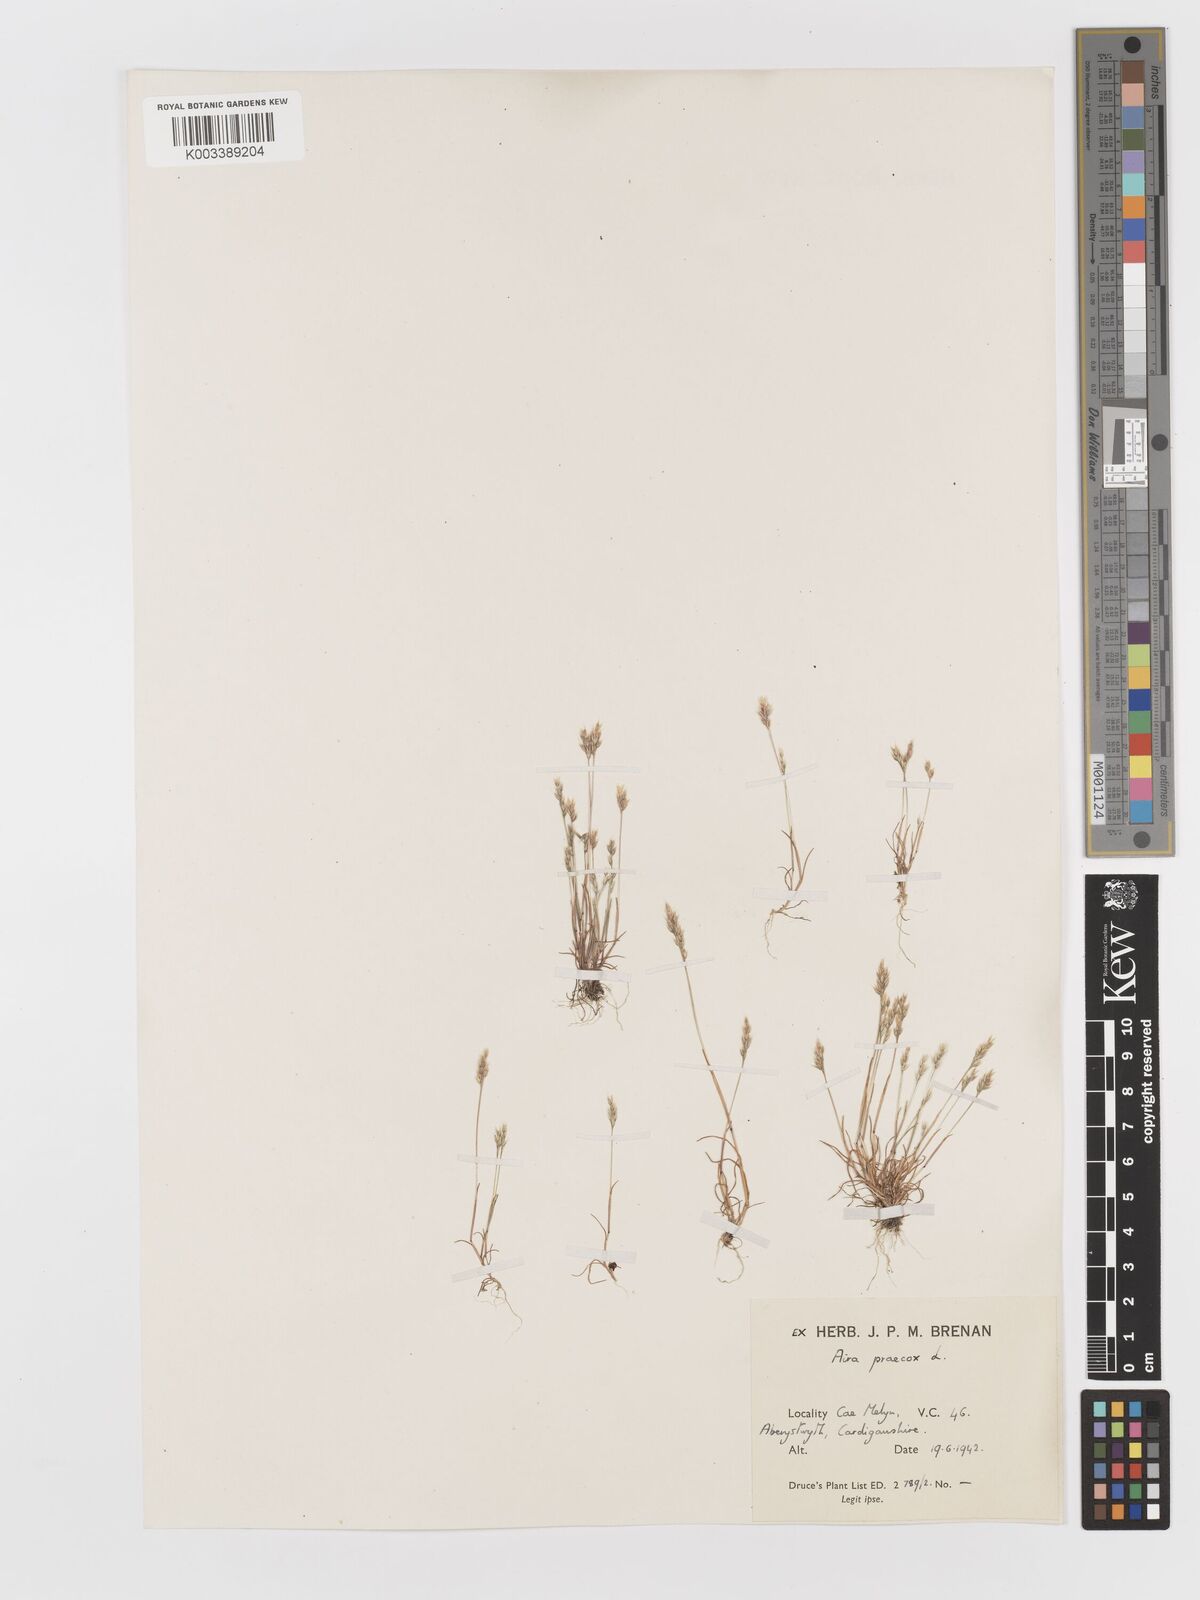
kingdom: Plantae
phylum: Tracheophyta
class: Liliopsida
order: Poales
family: Poaceae
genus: Aira
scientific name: Aira praecox
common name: Early hair-grass
